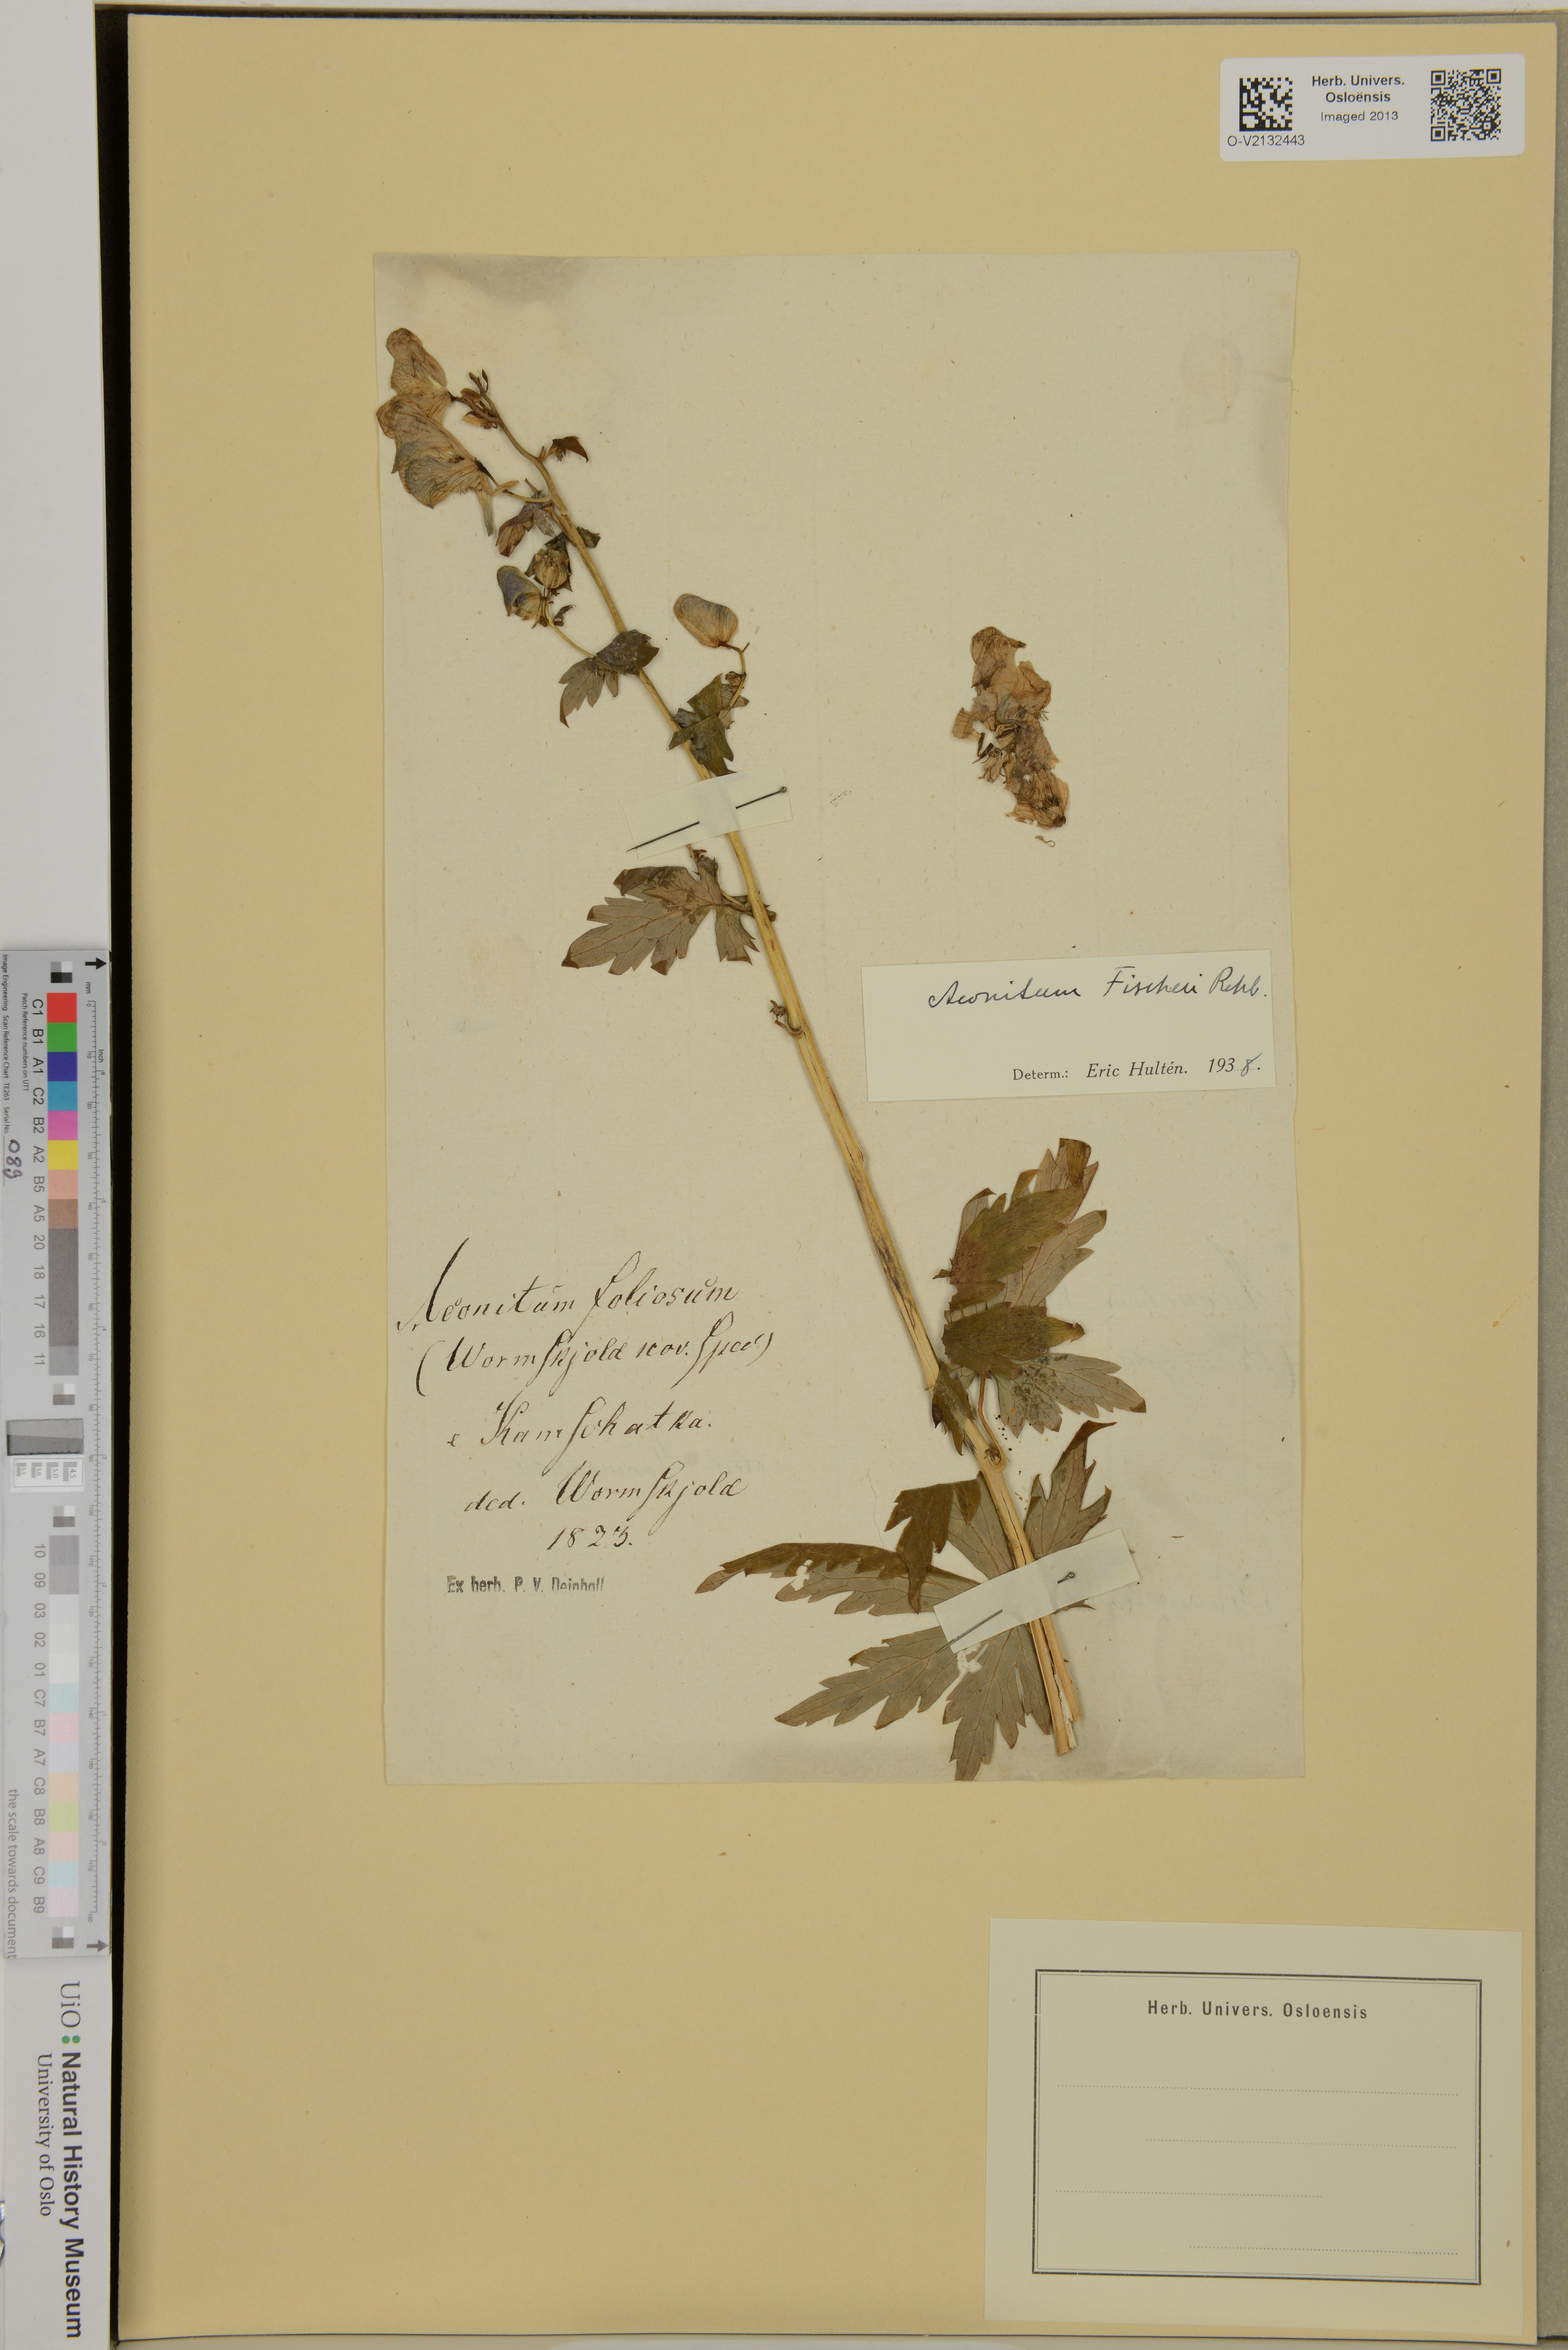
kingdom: Plantae
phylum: Tracheophyta
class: Magnoliopsida
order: Ranunculales
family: Ranunculaceae
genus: Aconitum
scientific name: Aconitum fischeri
